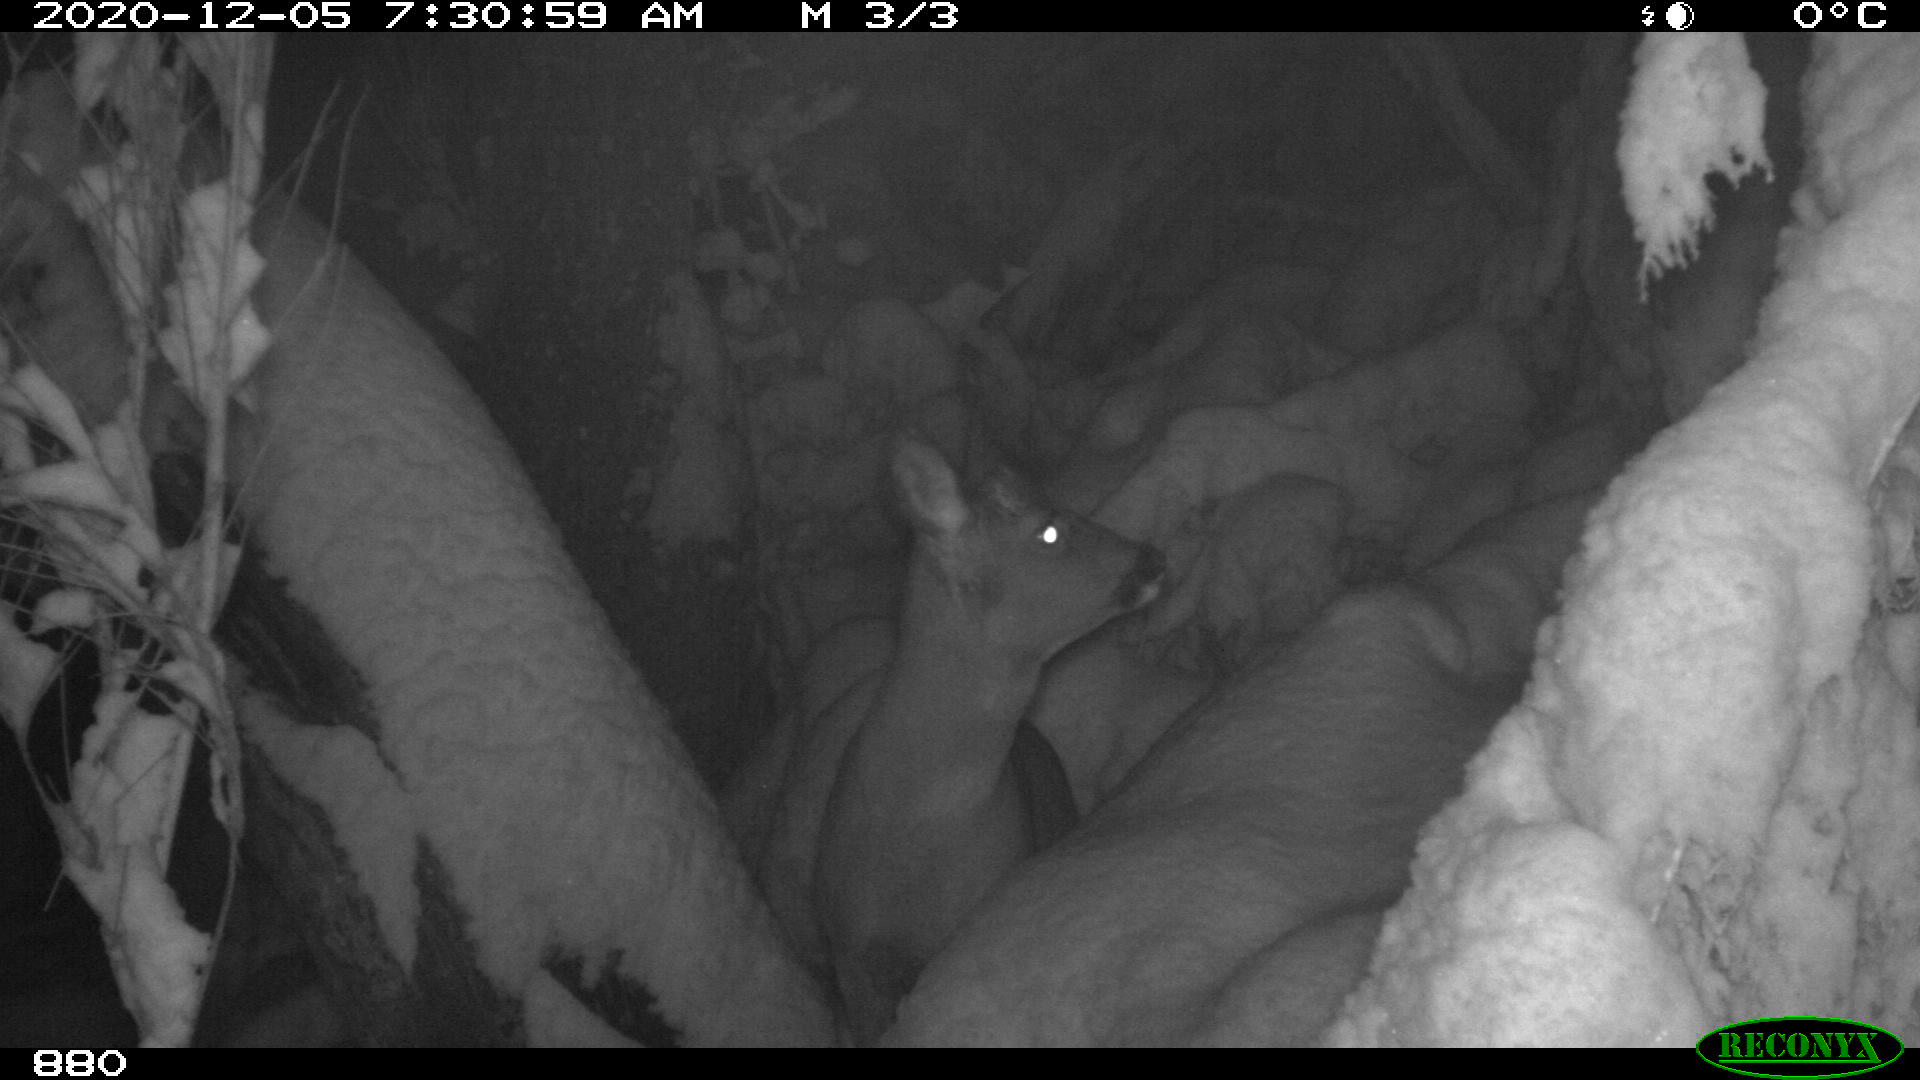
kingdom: Animalia
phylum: Chordata
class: Mammalia
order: Artiodactyla
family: Cervidae
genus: Capreolus
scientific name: Capreolus capreolus
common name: Western roe deer
